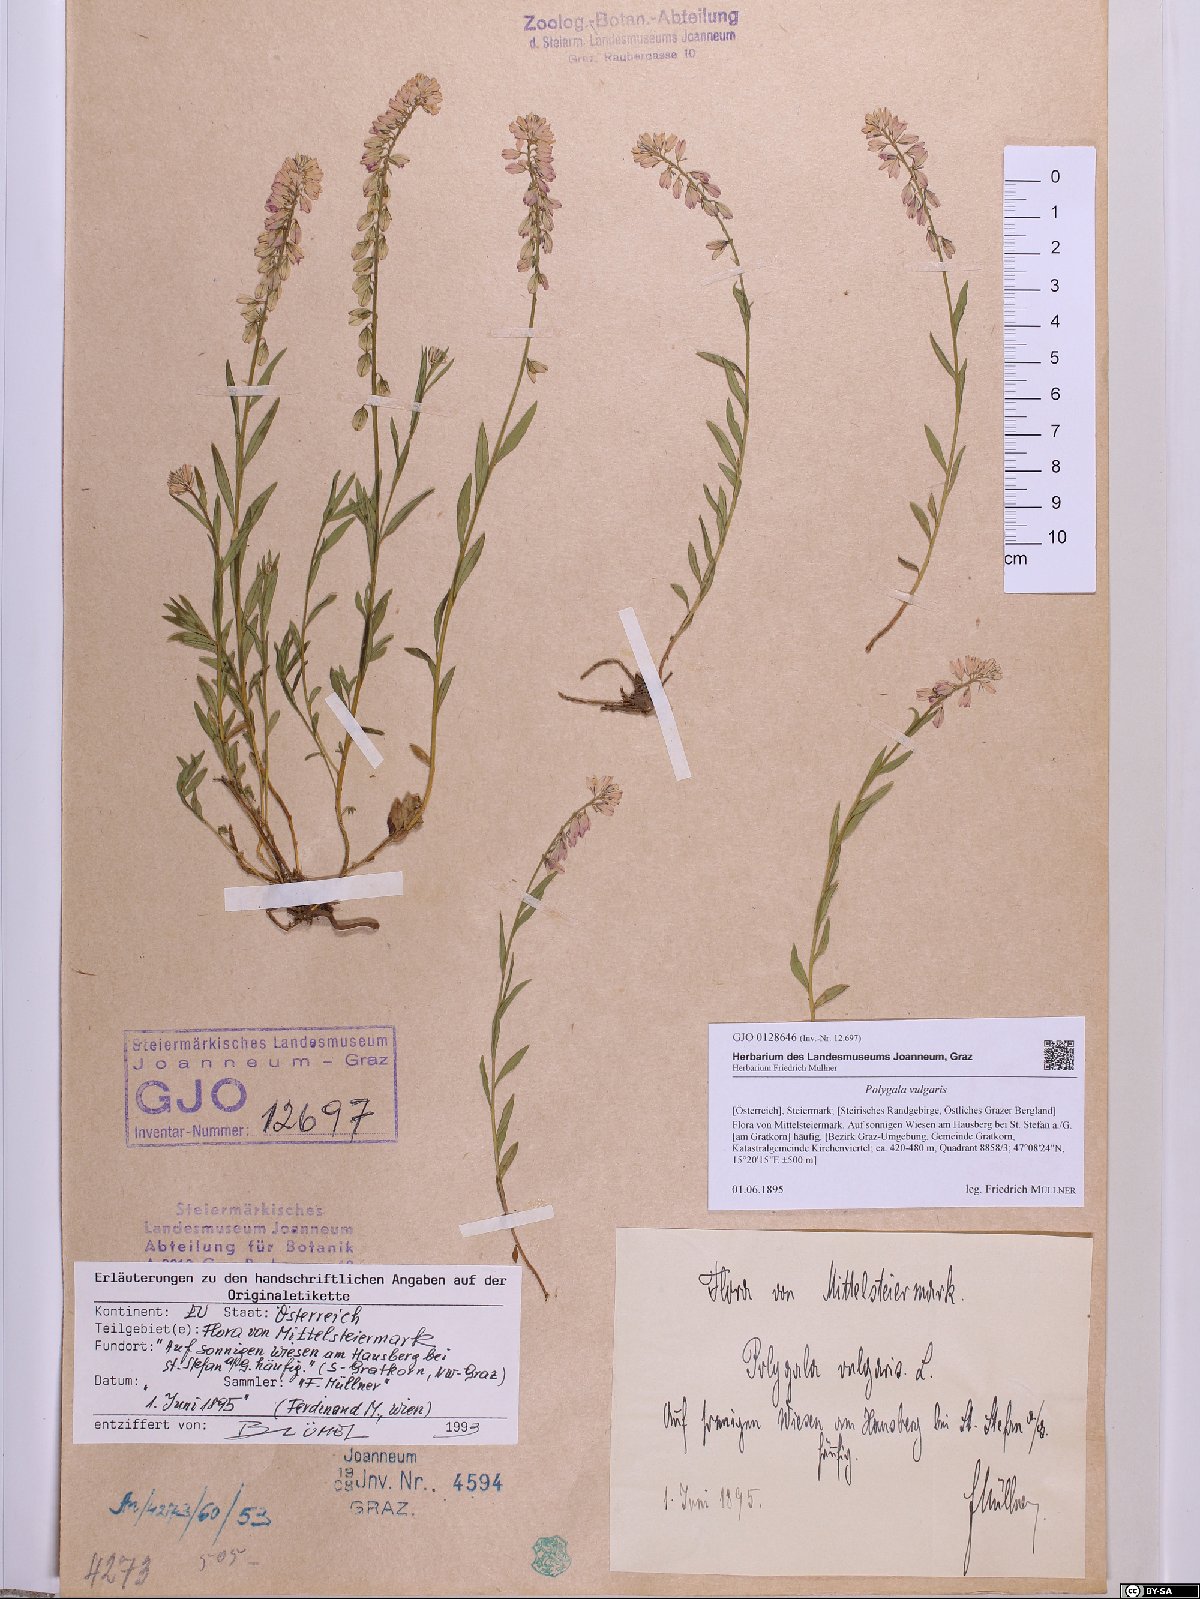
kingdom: Plantae
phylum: Tracheophyta
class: Magnoliopsida
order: Fabales
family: Polygalaceae
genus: Polygala
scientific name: Polygala vulgaris
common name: Common milkwort
